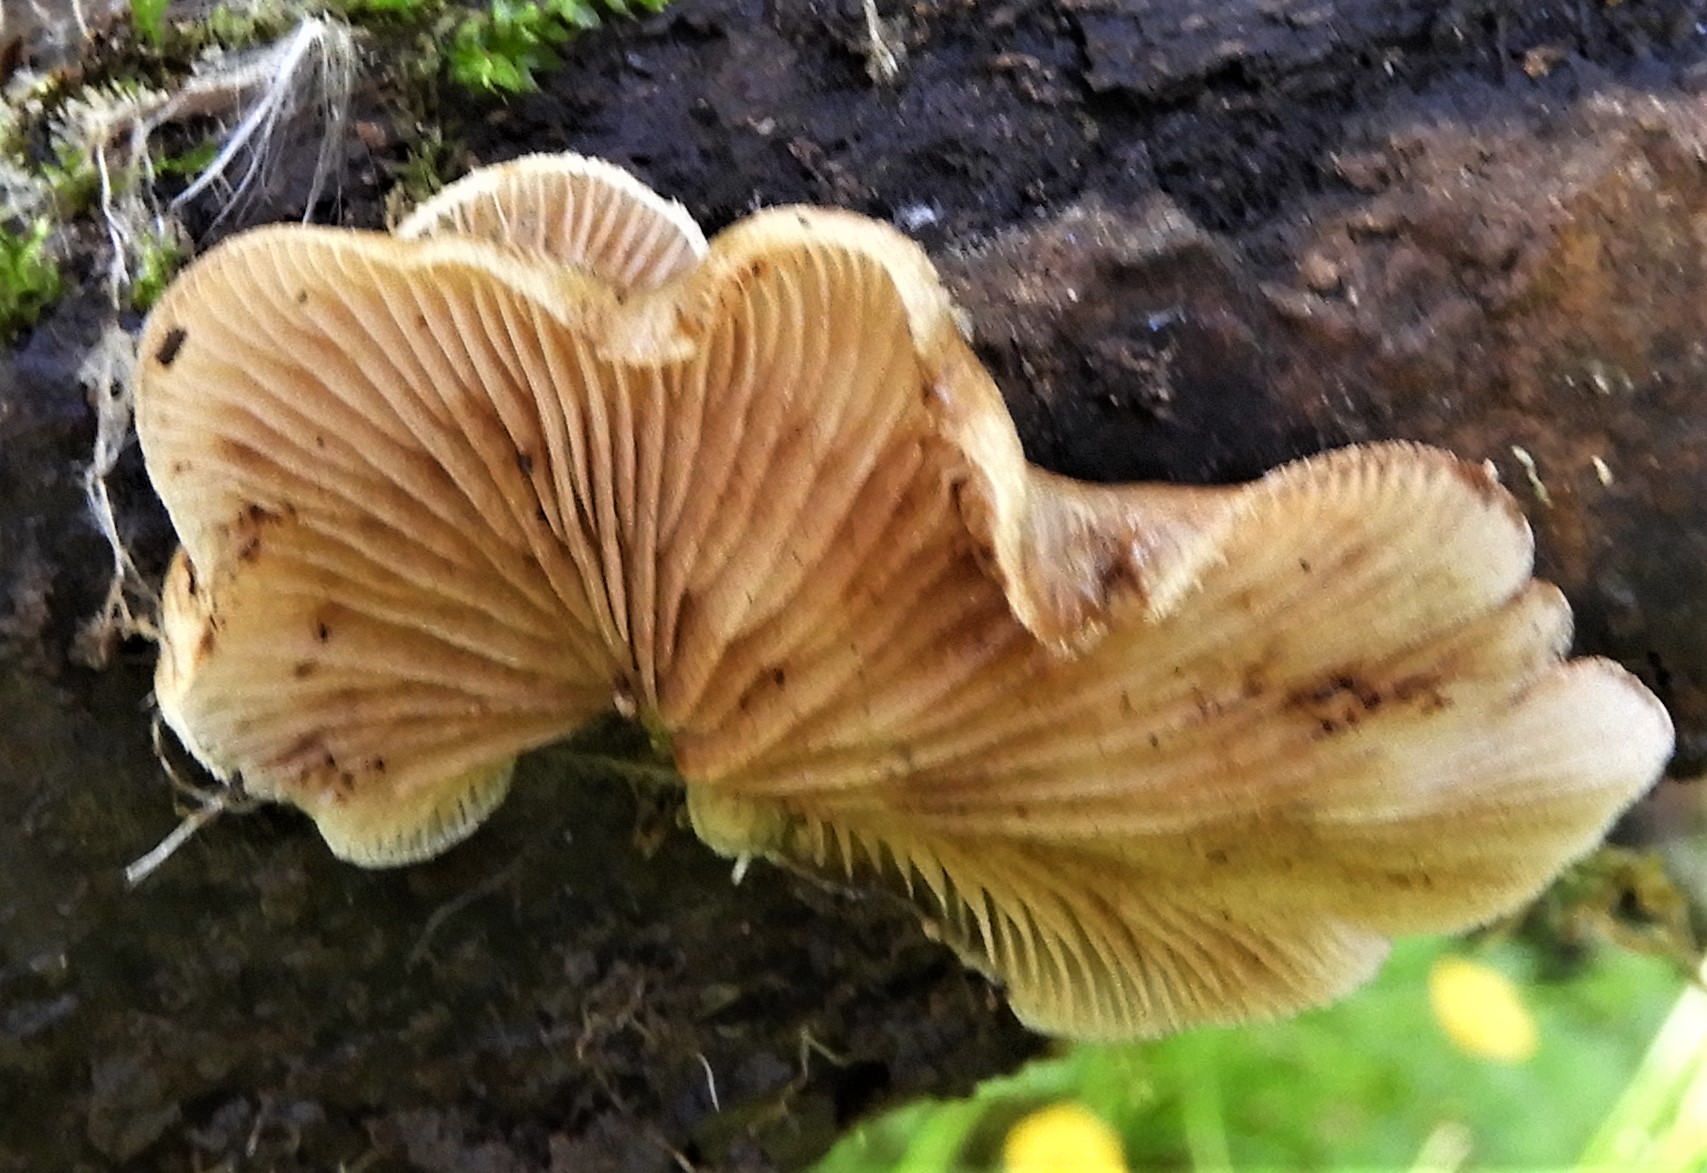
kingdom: Fungi
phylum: Basidiomycota
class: Agaricomycetes
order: Agaricales
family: Crepidotaceae
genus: Crepidotus
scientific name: Crepidotus mollis
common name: blød muslingesvamp
